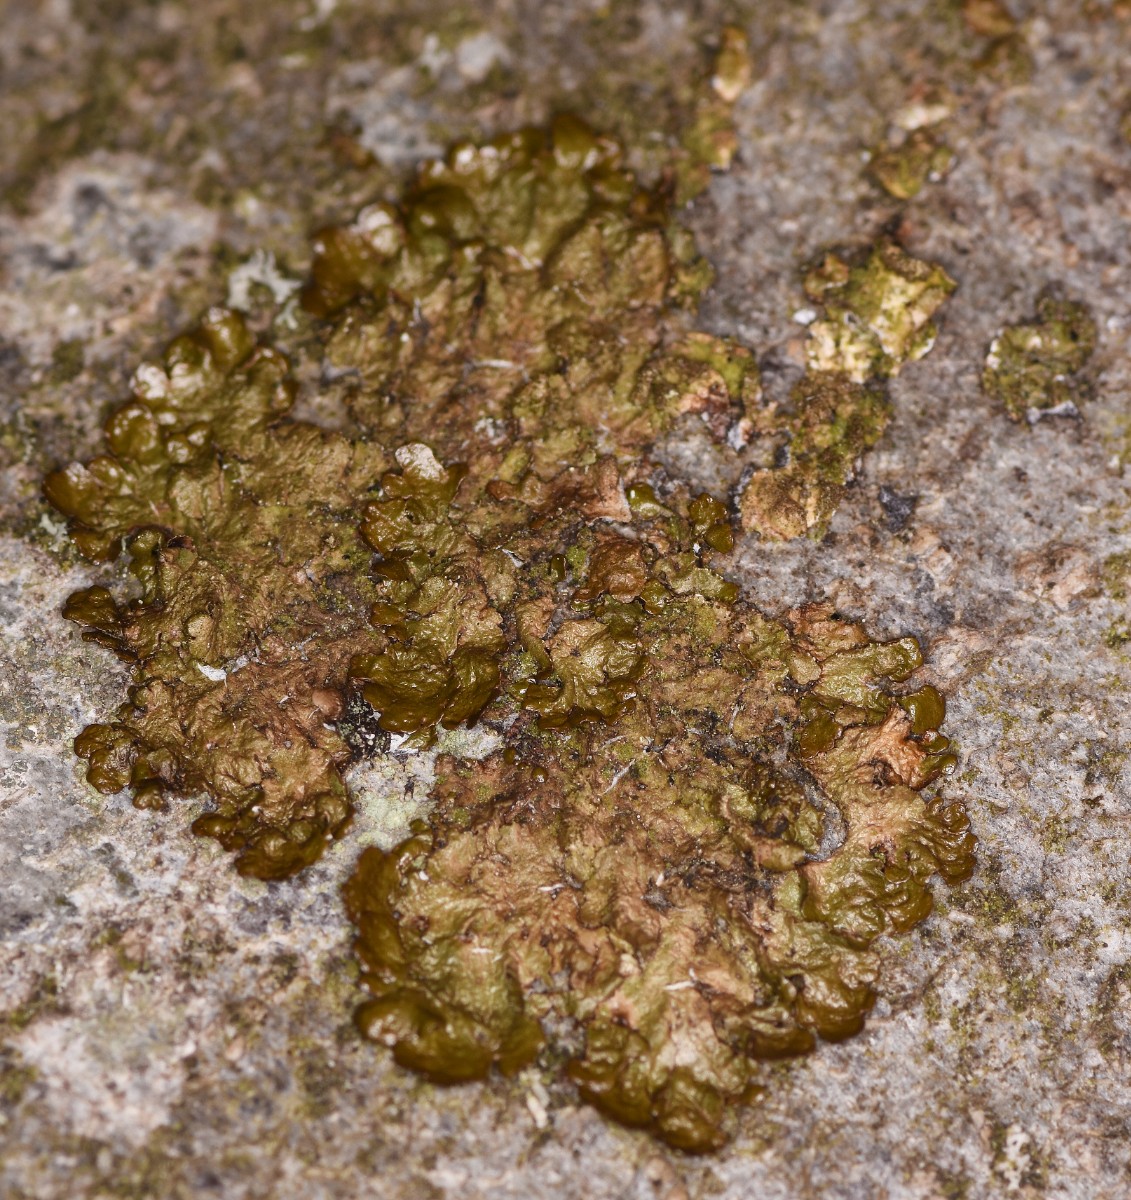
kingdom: Fungi
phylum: Ascomycota
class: Lecanoromycetes
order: Lecanorales
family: Parmeliaceae
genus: Melanelixia
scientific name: Melanelixia glabratula
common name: glinsende skållav
